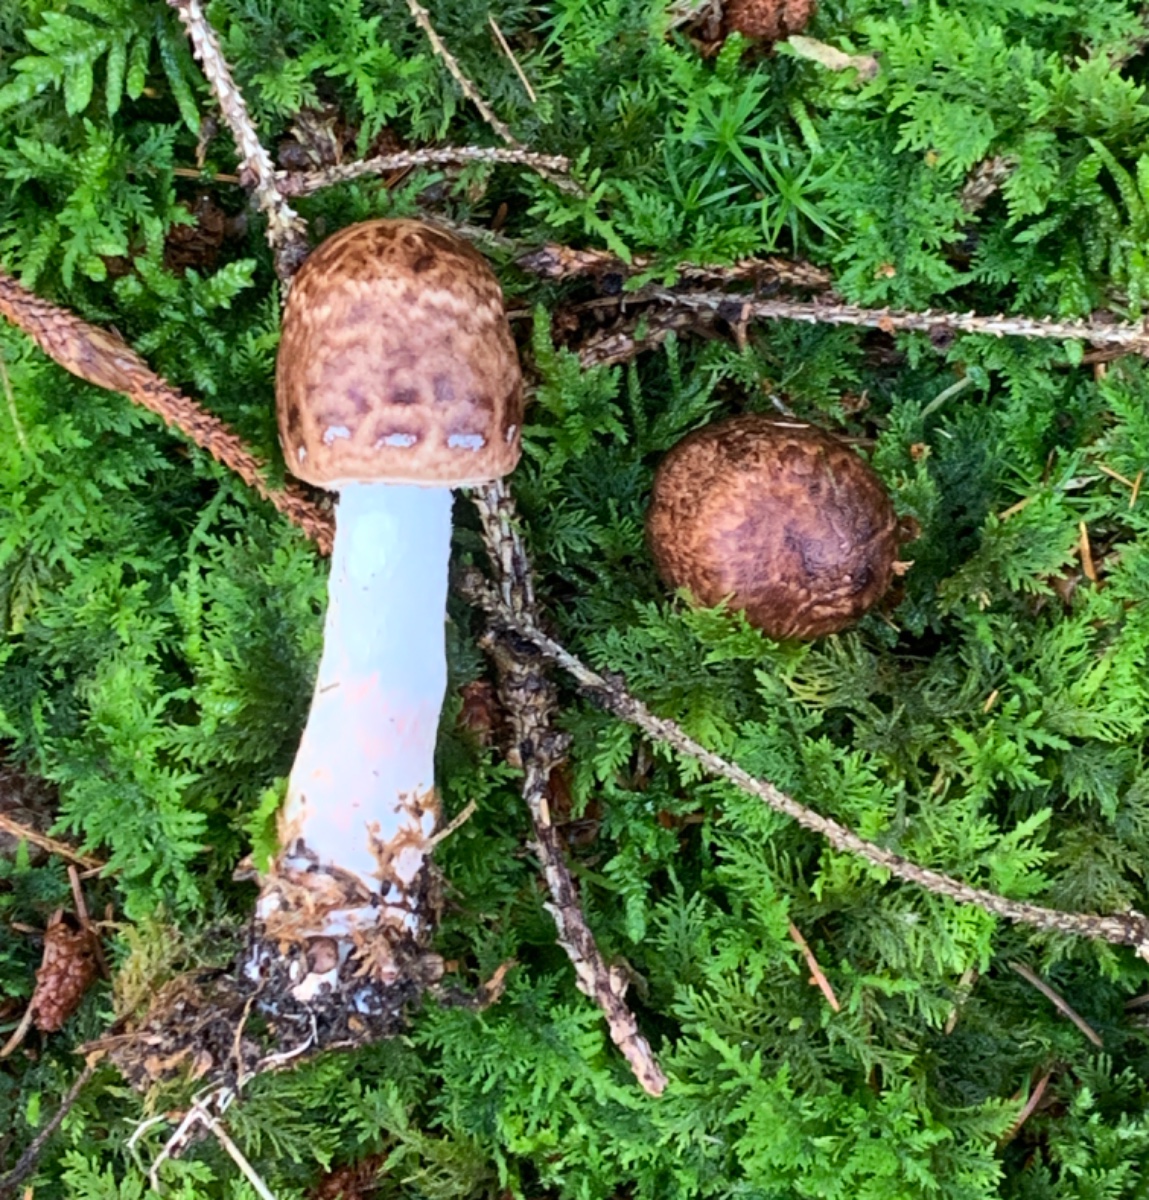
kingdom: Fungi
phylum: Basidiomycota
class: Agaricomycetes
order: Agaricales
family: Agaricaceae
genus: Agaricus
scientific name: Agaricus impudicus
